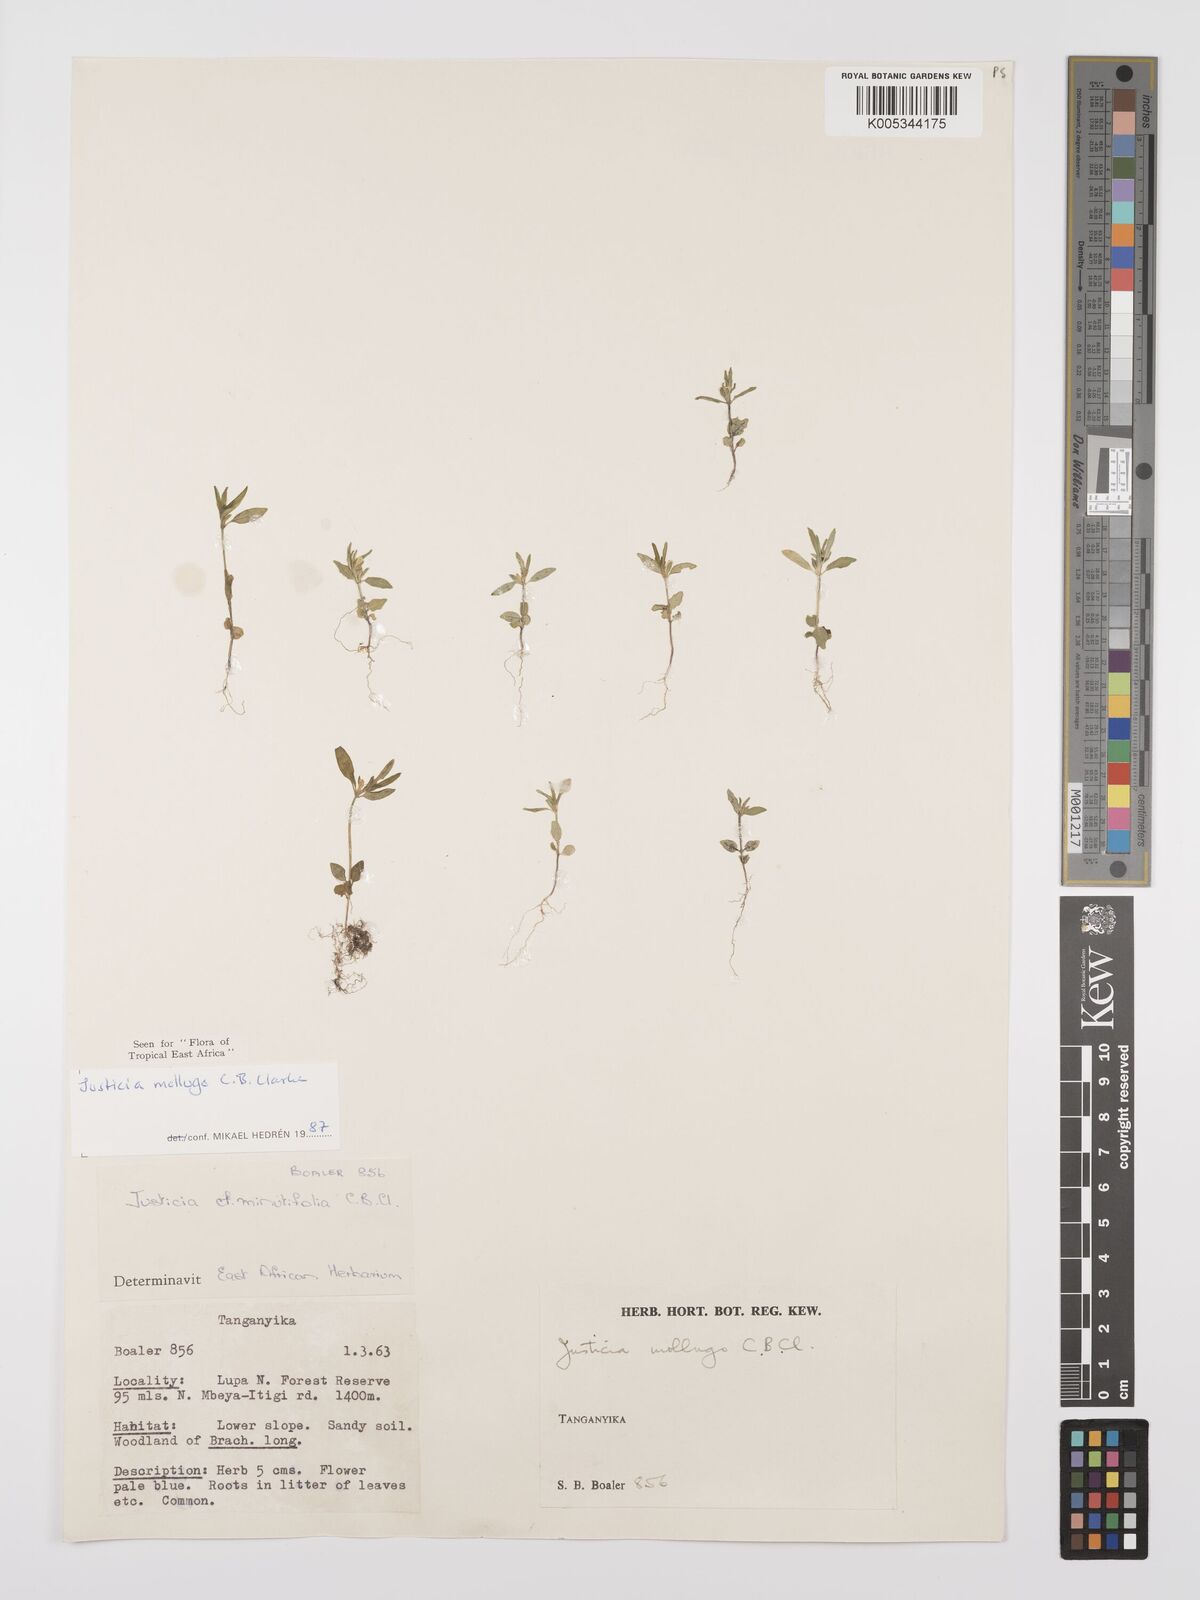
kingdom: Plantae
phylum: Tracheophyta
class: Magnoliopsida
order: Lamiales
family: Acanthaceae
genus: Justicia
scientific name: Justicia mollugo
